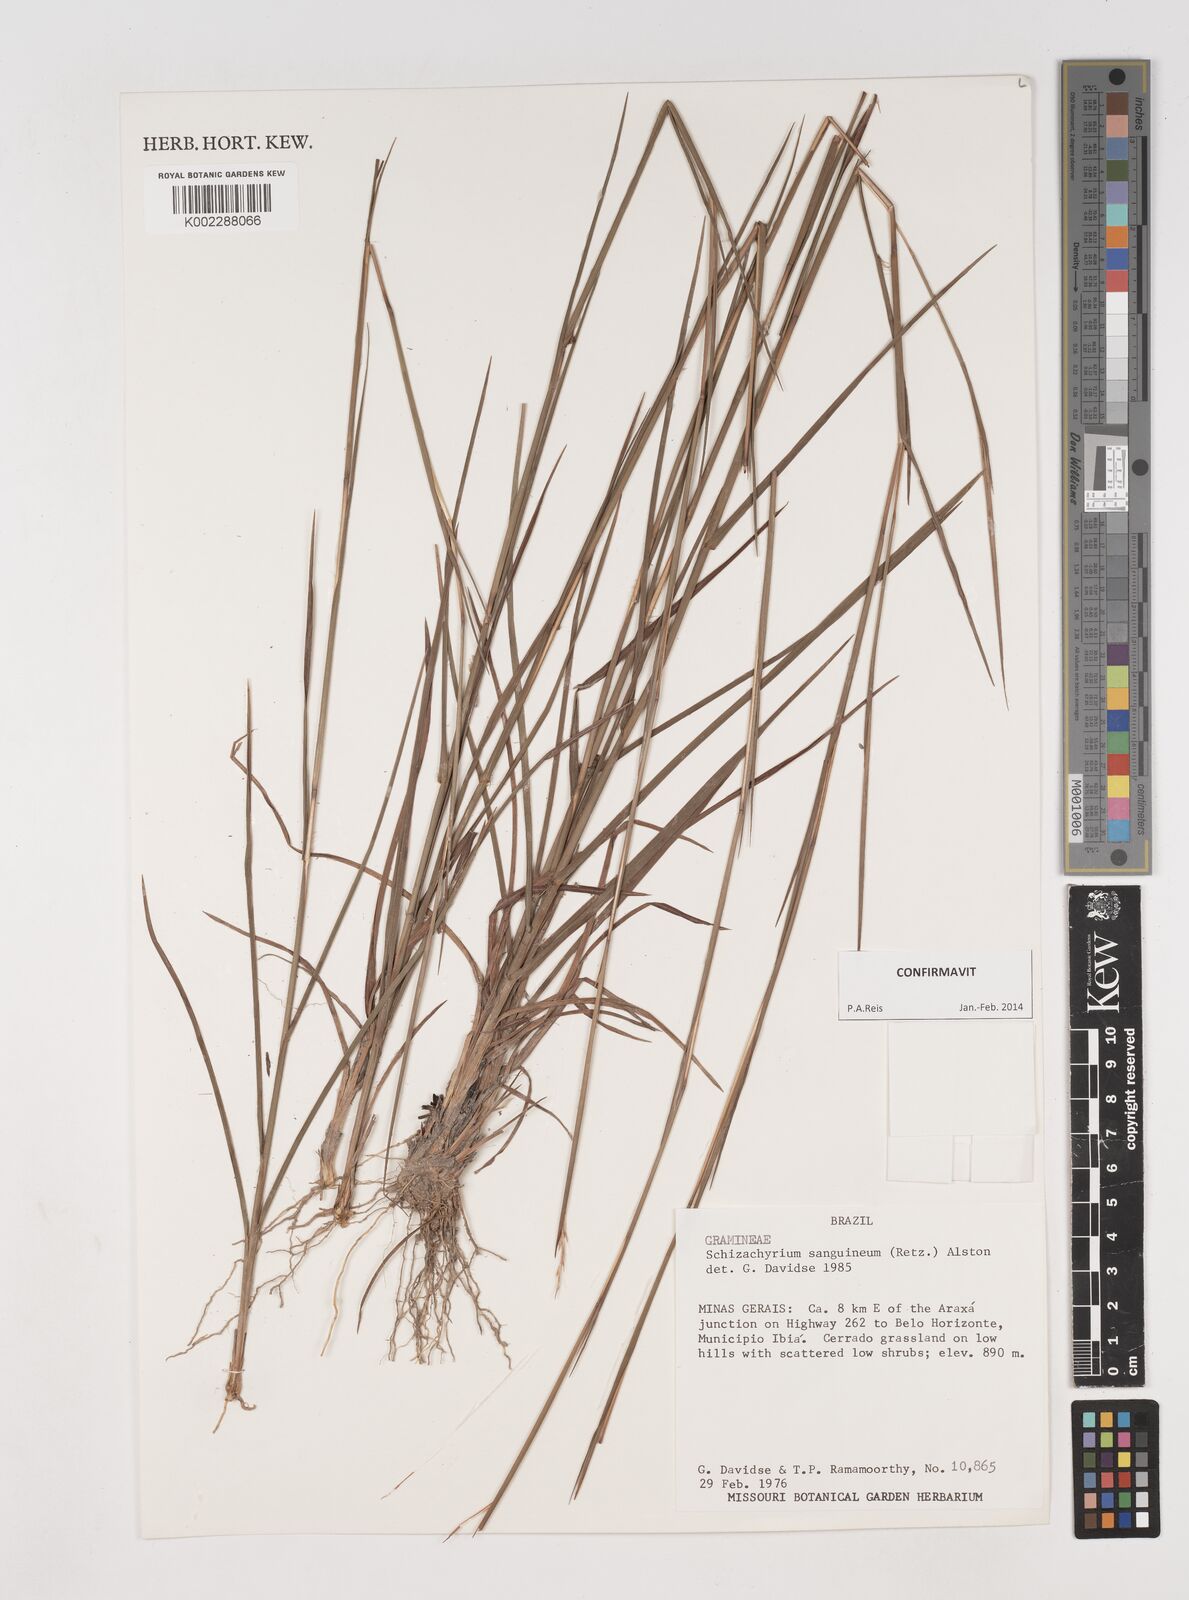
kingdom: Plantae
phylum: Tracheophyta
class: Liliopsida
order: Poales
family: Poaceae
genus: Schizachyrium
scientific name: Schizachyrium sanguineum
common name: Crimson bluestem
